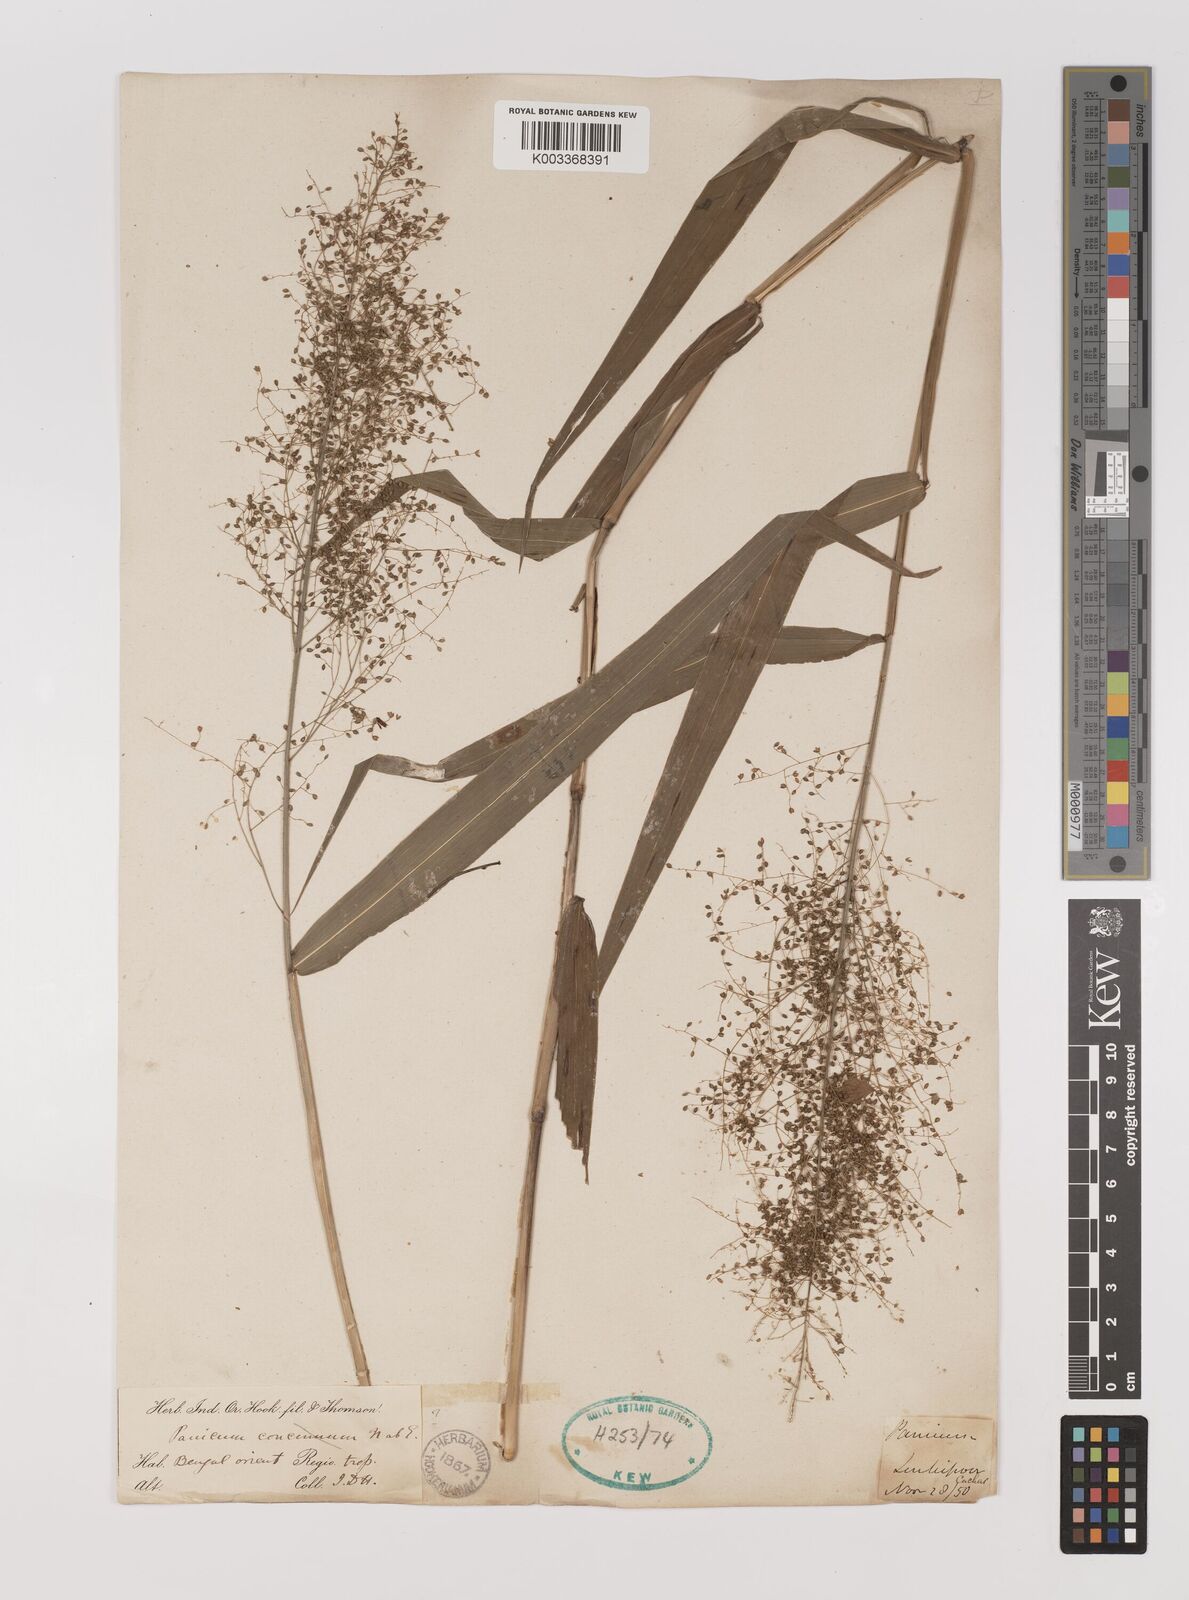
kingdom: Plantae
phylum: Tracheophyta
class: Liliopsida
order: Poales
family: Poaceae
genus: Panicum
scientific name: Panicum incomtum
